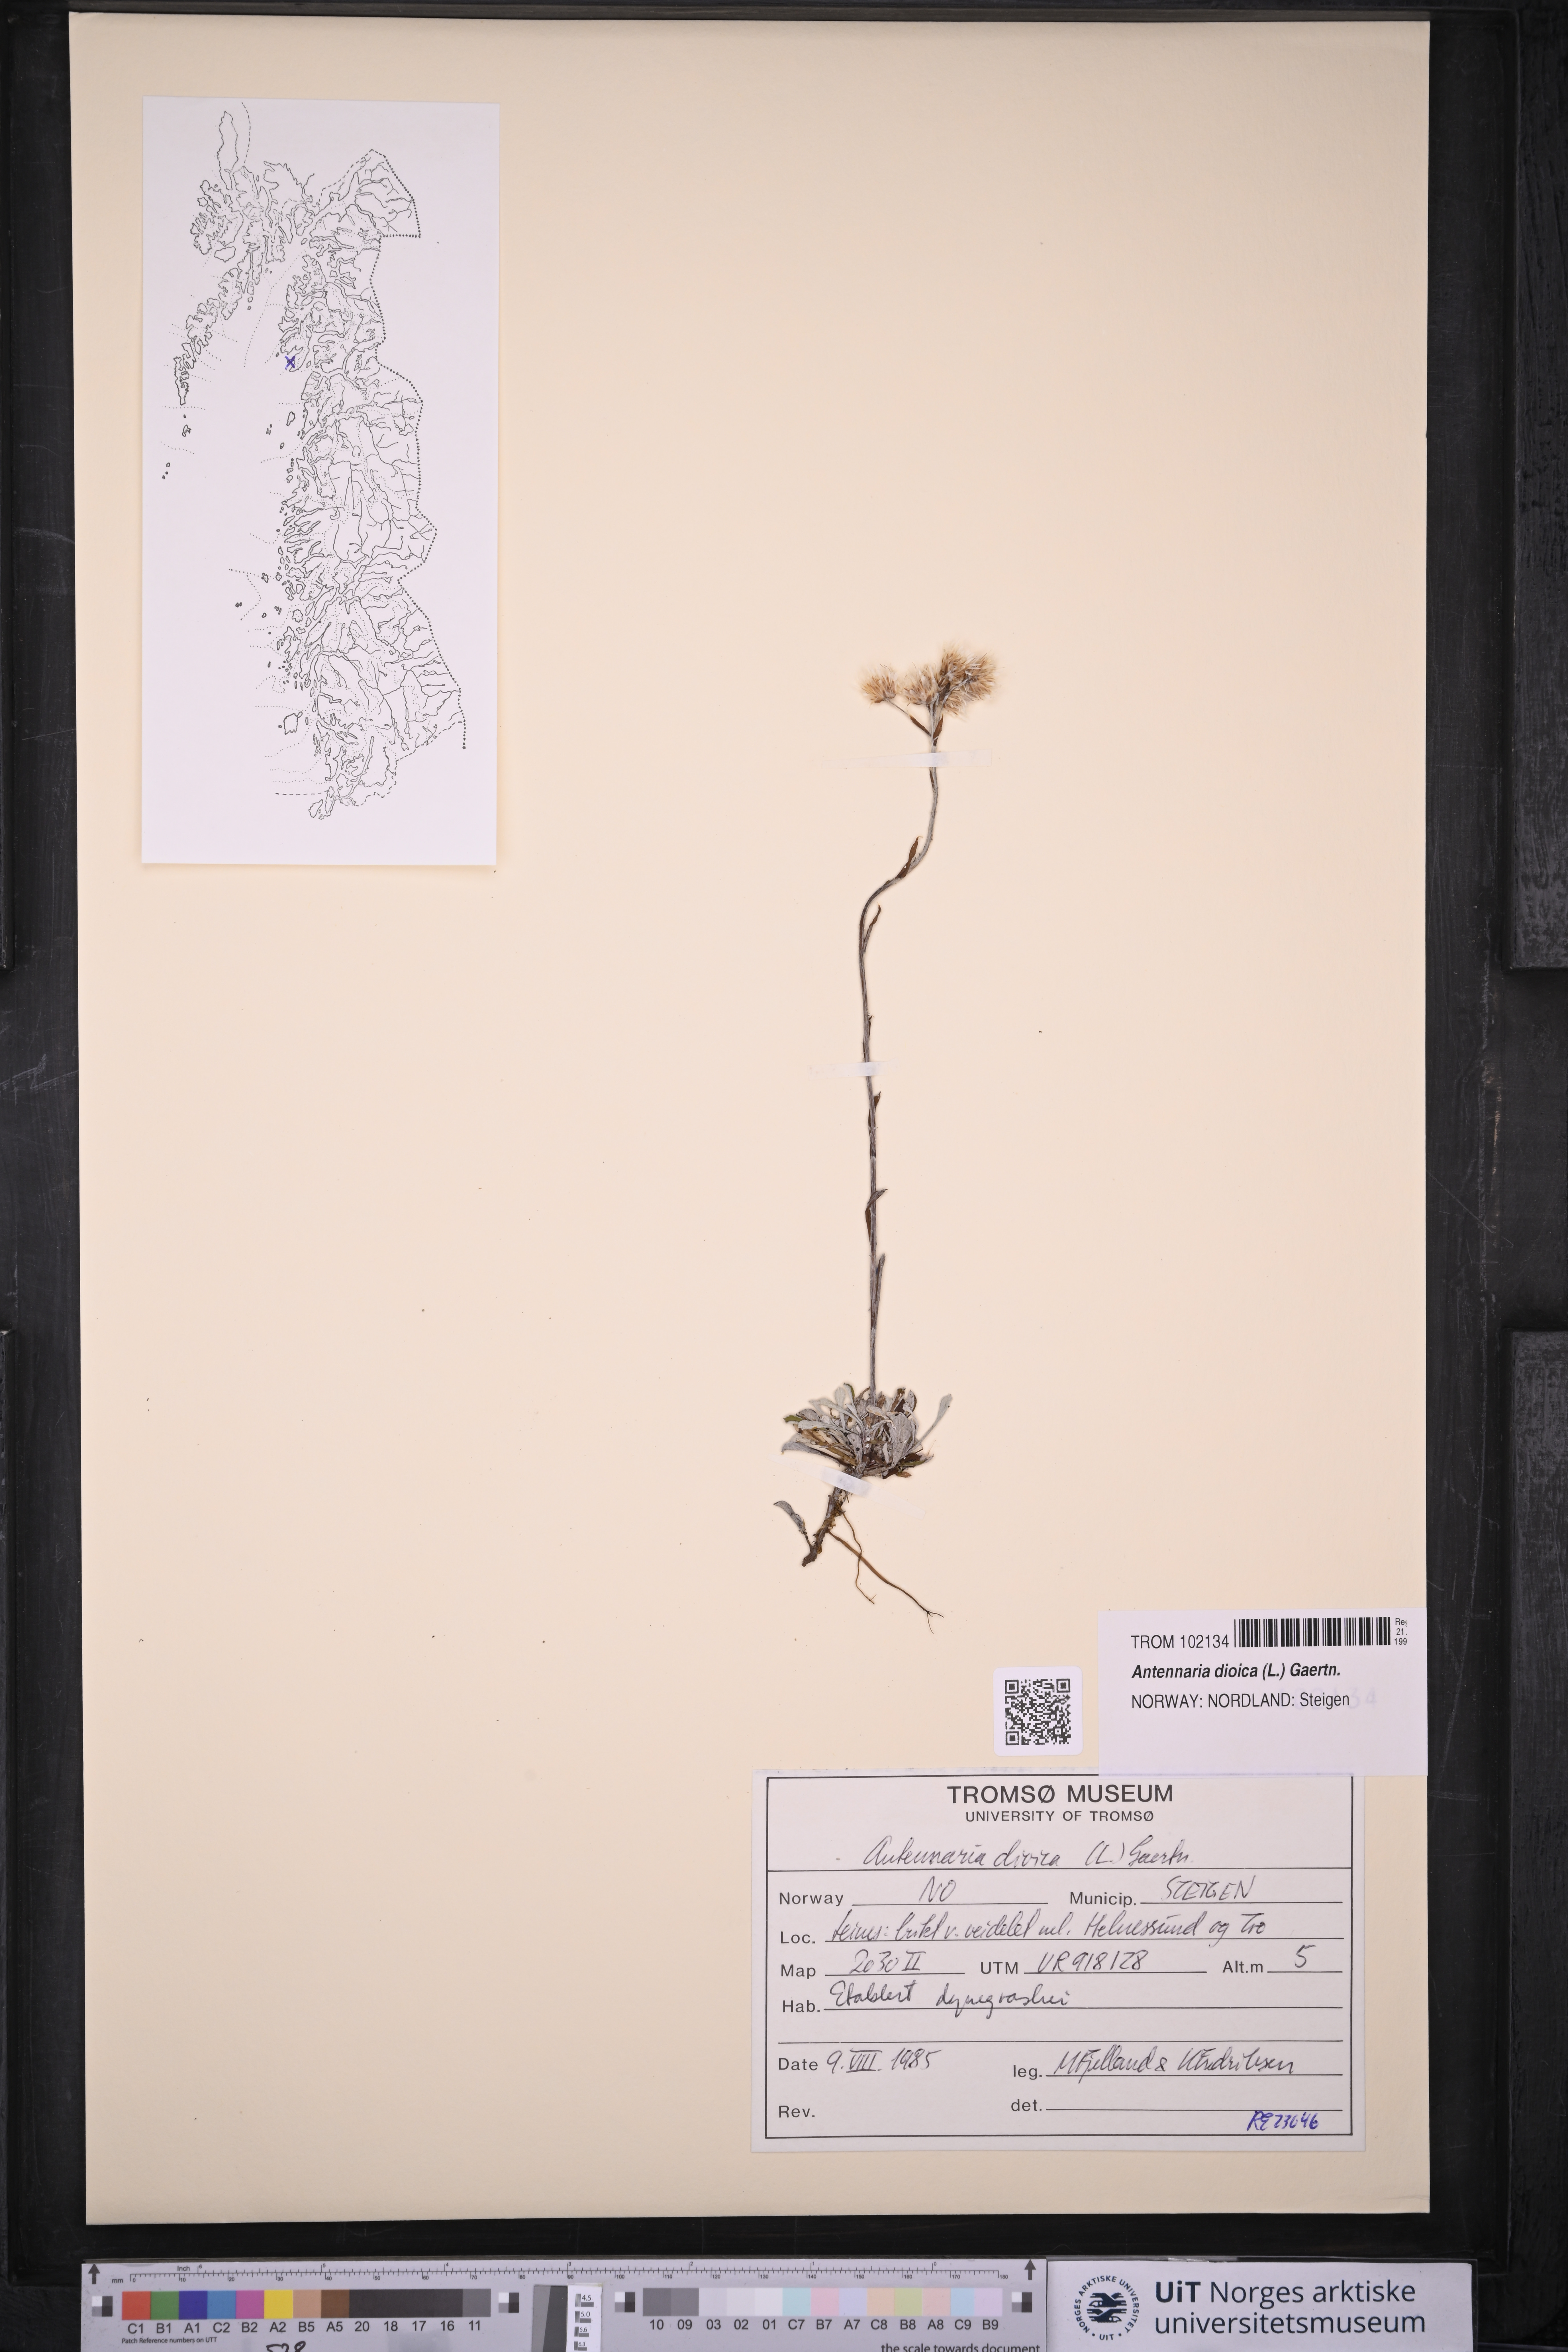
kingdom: Plantae
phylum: Tracheophyta
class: Magnoliopsida
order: Asterales
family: Asteraceae
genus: Antennaria
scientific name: Antennaria dioica
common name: Mountain everlasting
